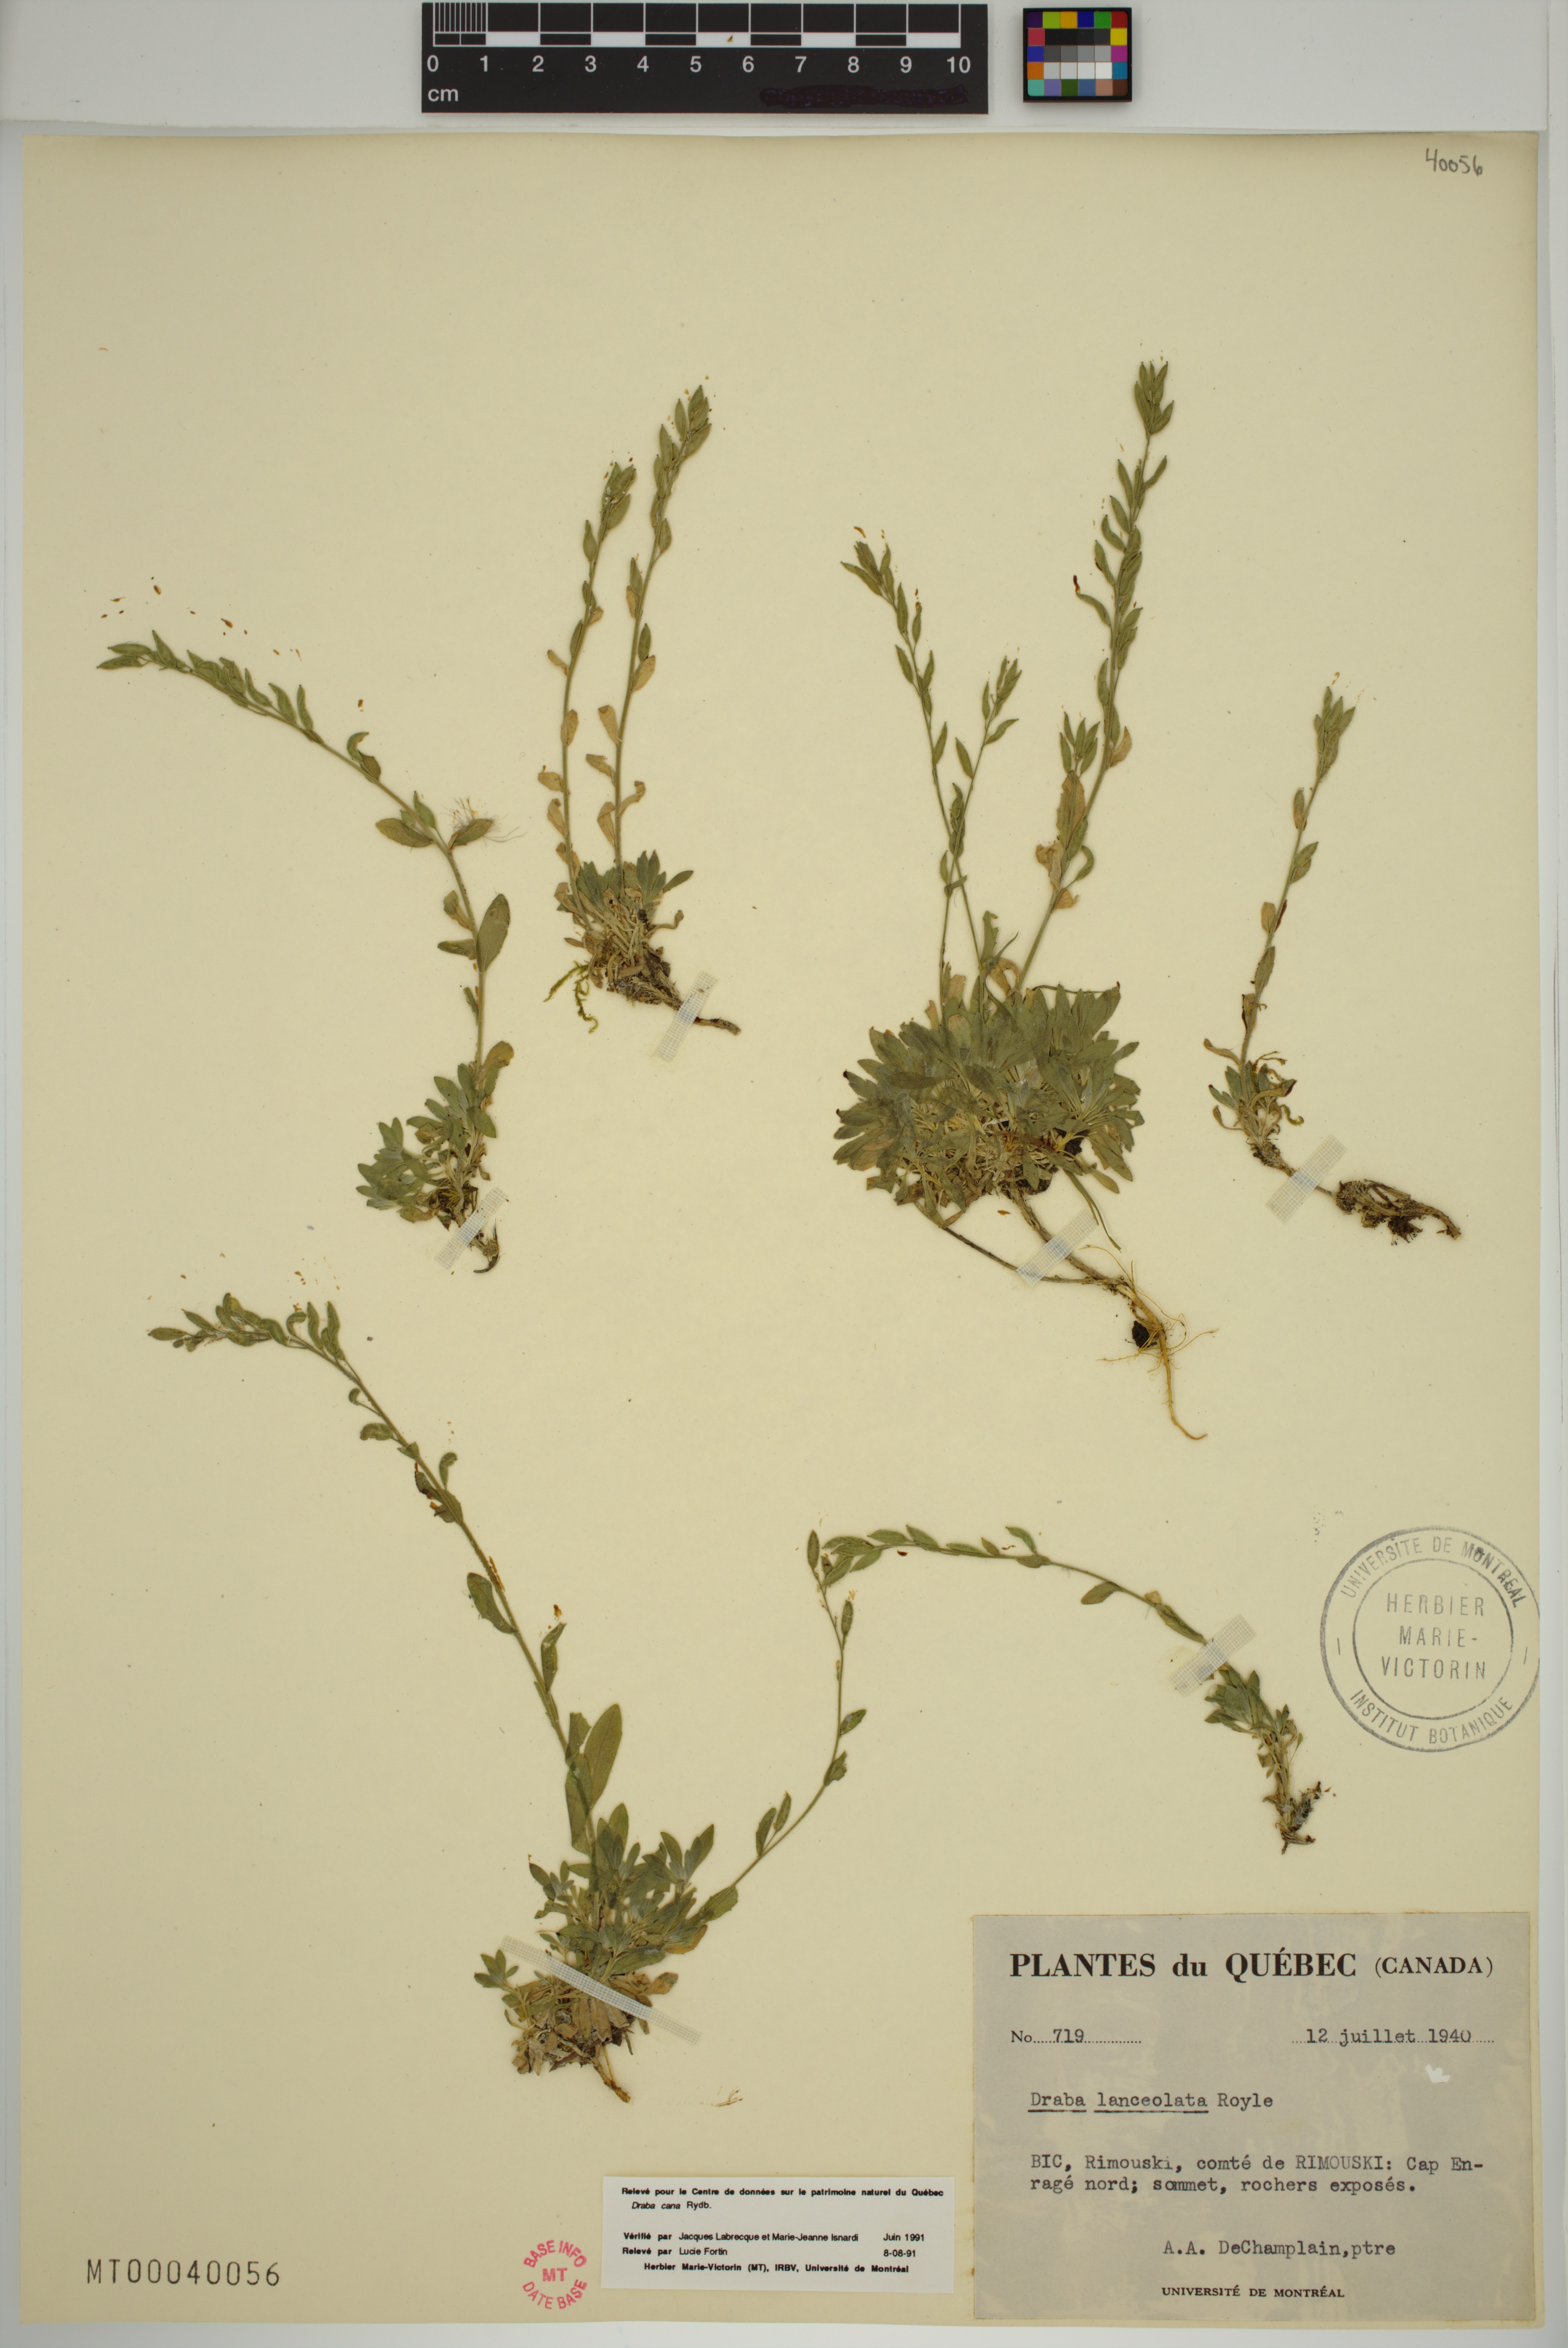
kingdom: Plantae
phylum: Tracheophyta
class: Magnoliopsida
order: Brassicales
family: Brassicaceae
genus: Draba
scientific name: Draba cana
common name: Hoary draba
